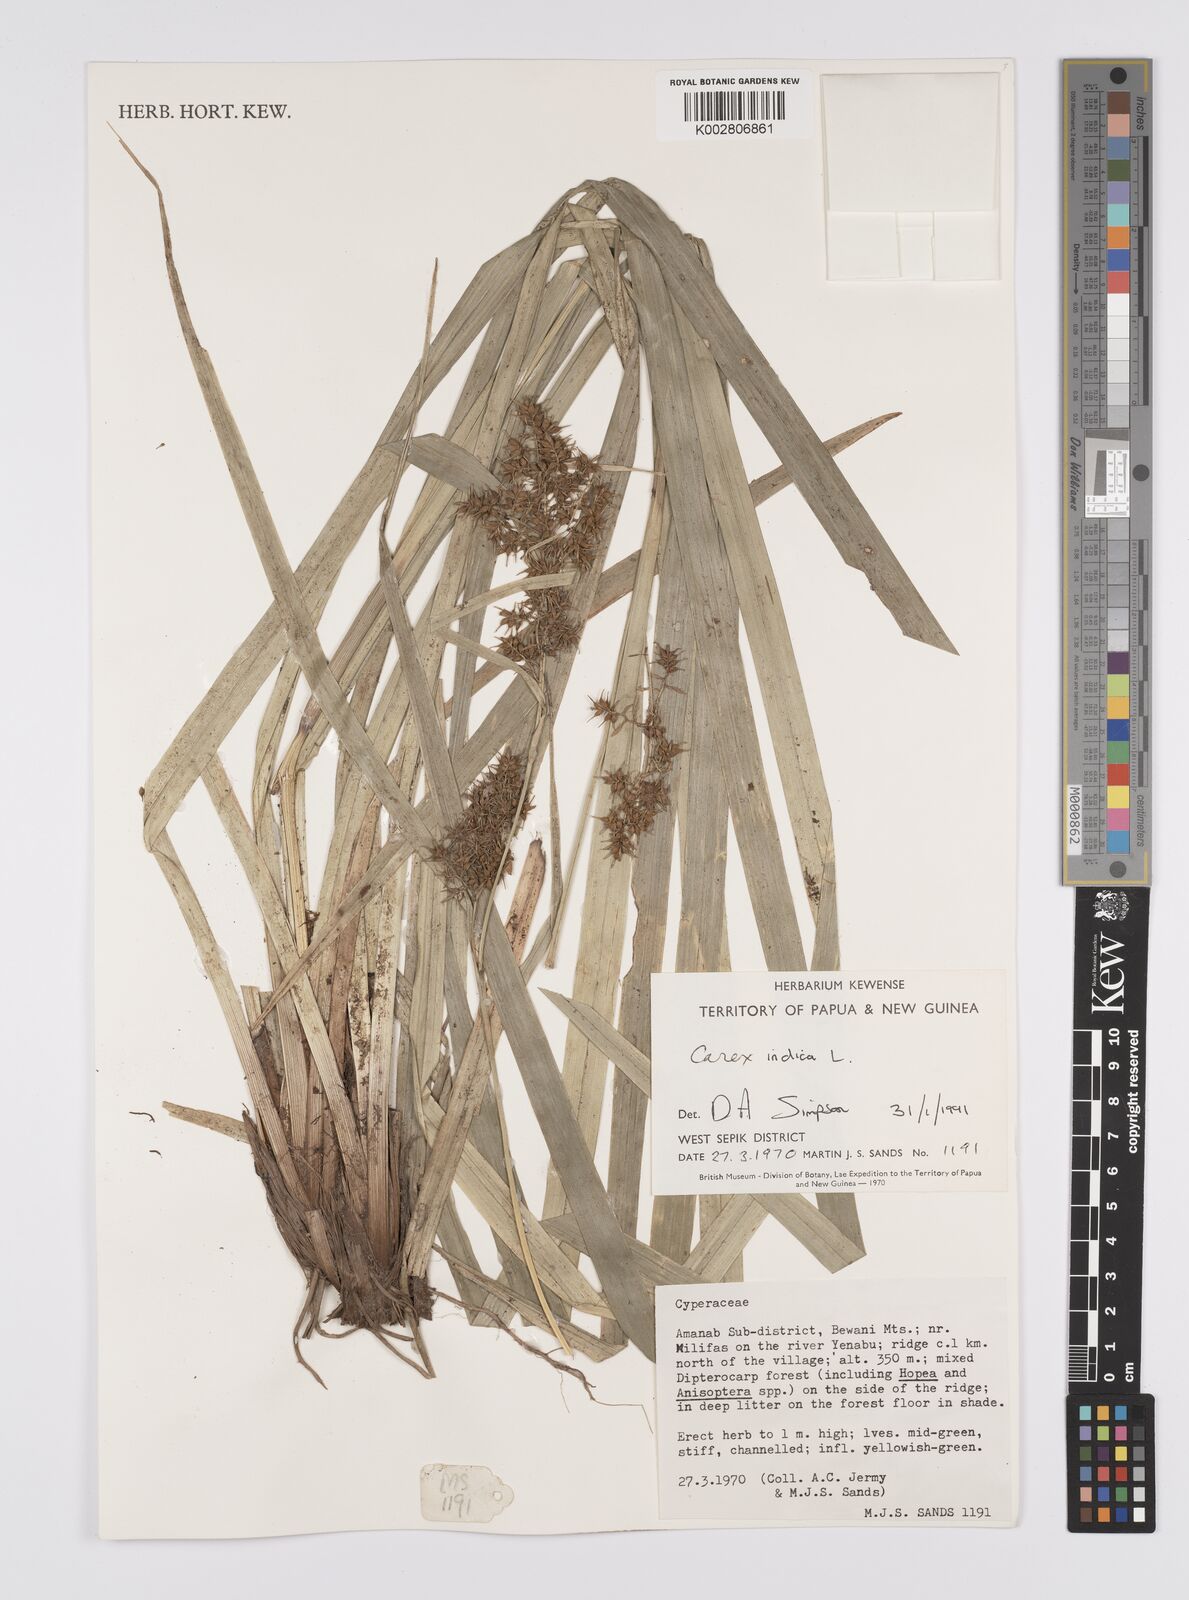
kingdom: Plantae
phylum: Tracheophyta
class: Liliopsida
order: Poales
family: Cyperaceae
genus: Carex
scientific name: Carex indica
